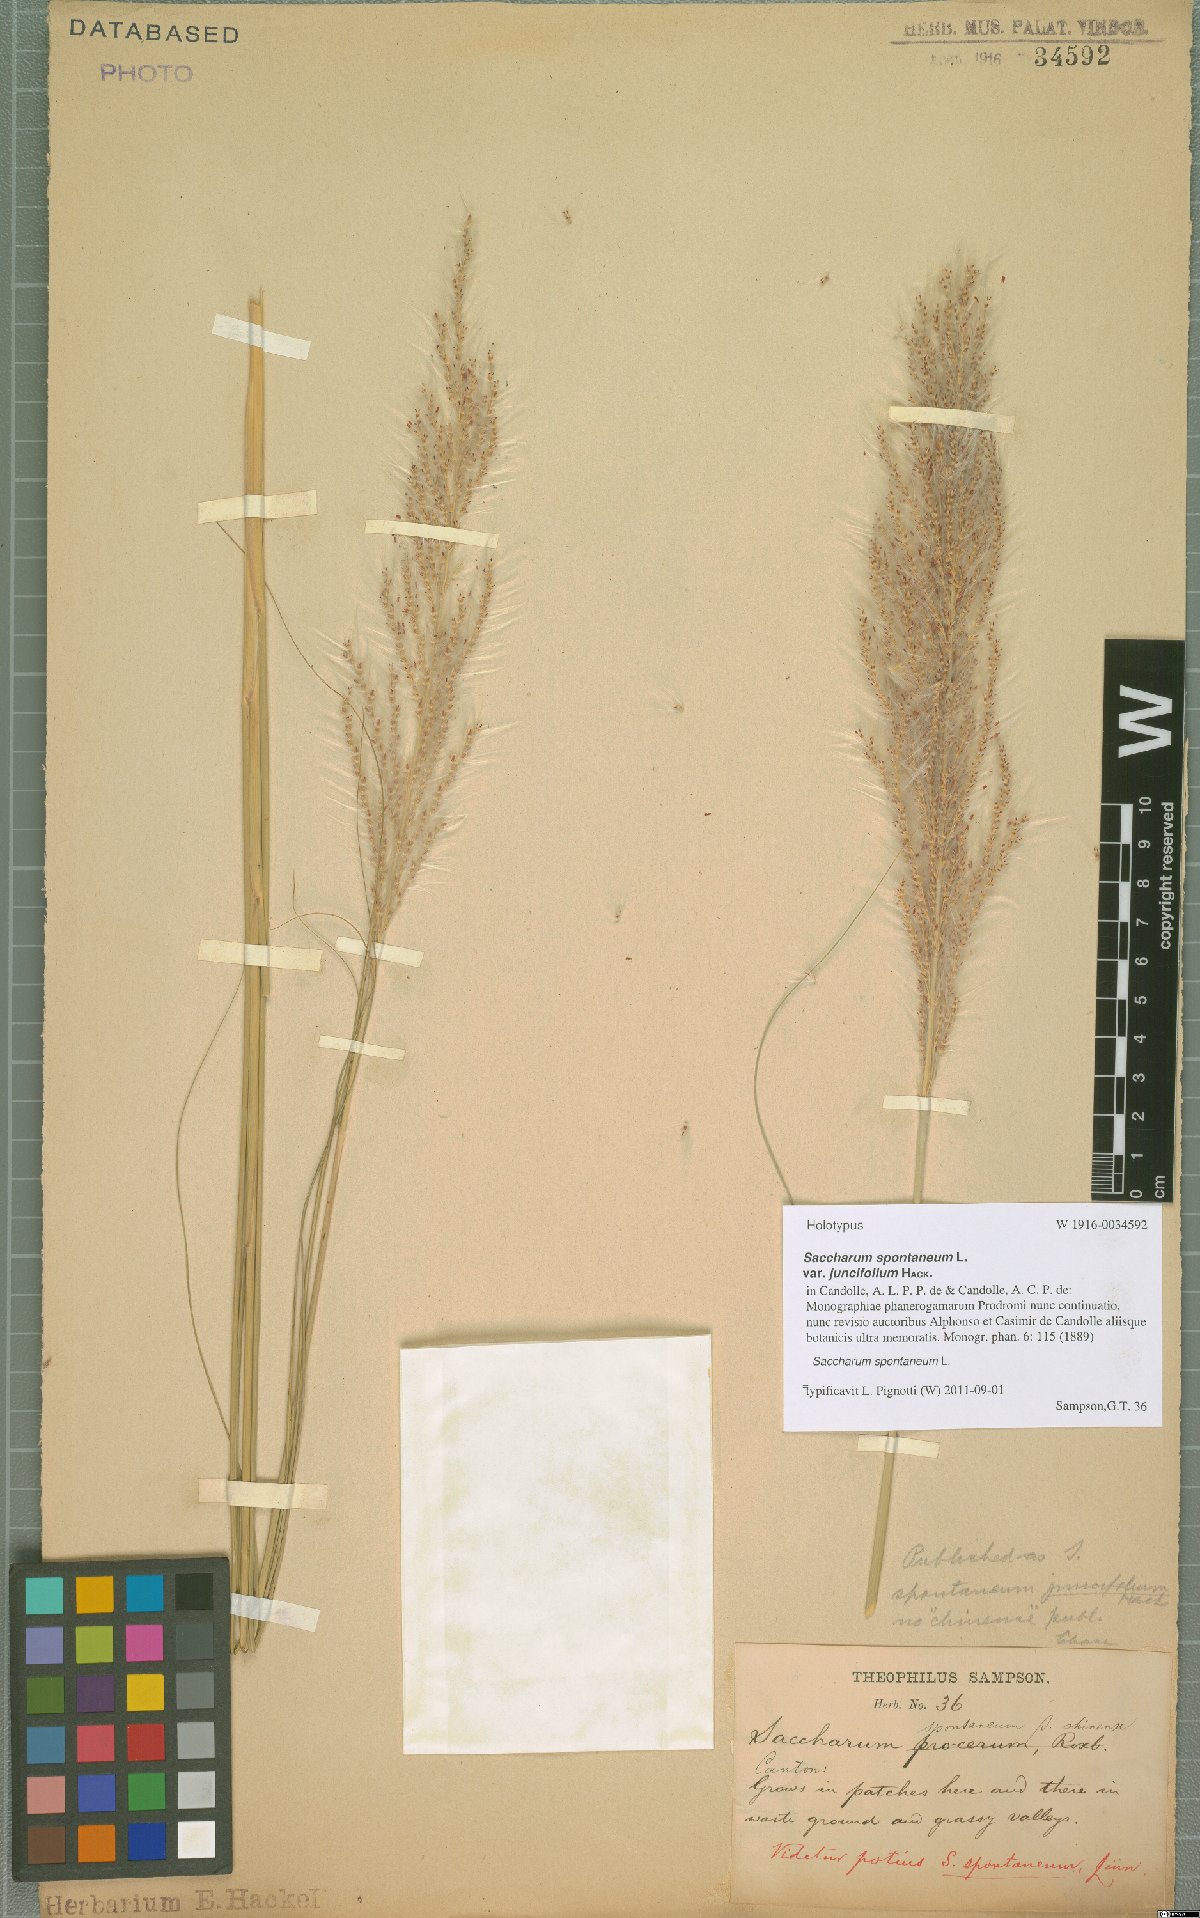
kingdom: Plantae
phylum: Tracheophyta
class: Liliopsida
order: Poales
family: Poaceae
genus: Saccharum
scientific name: Saccharum spontaneum
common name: Wild sugarcane
